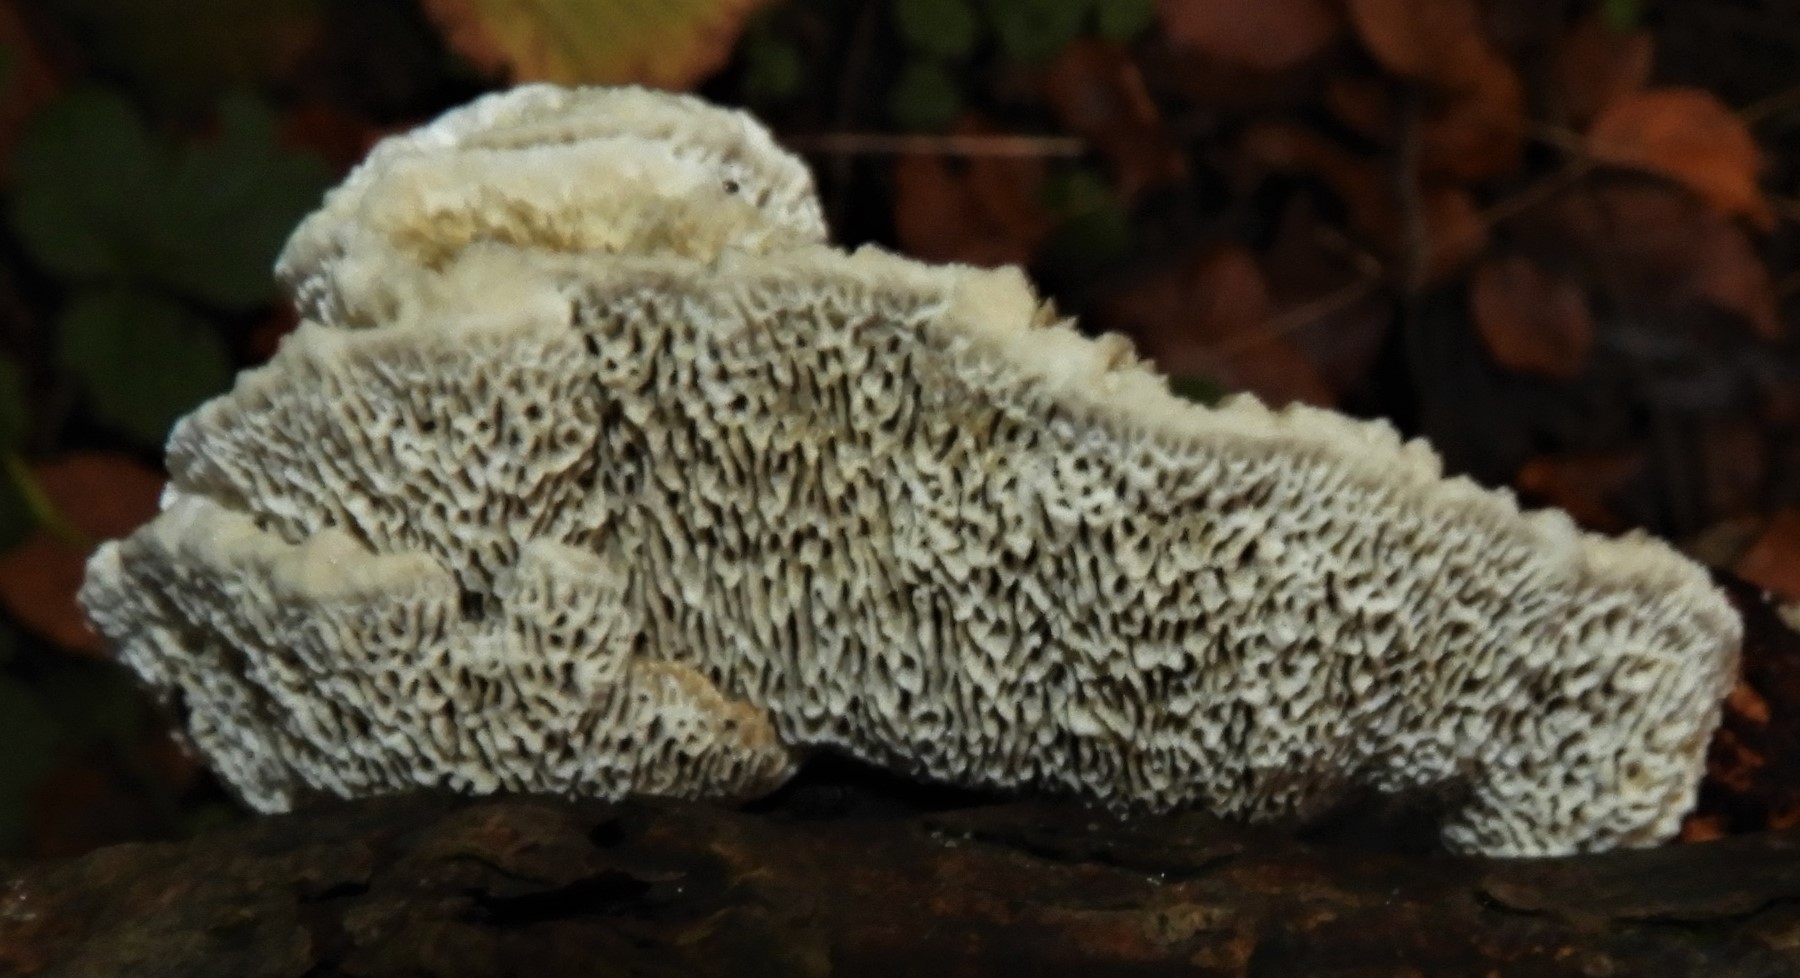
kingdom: Fungi
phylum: Basidiomycota
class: Agaricomycetes
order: Polyporales
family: Polyporaceae
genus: Daedaleopsis
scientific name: Daedaleopsis confragosa
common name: rødmende læderporesvamp
